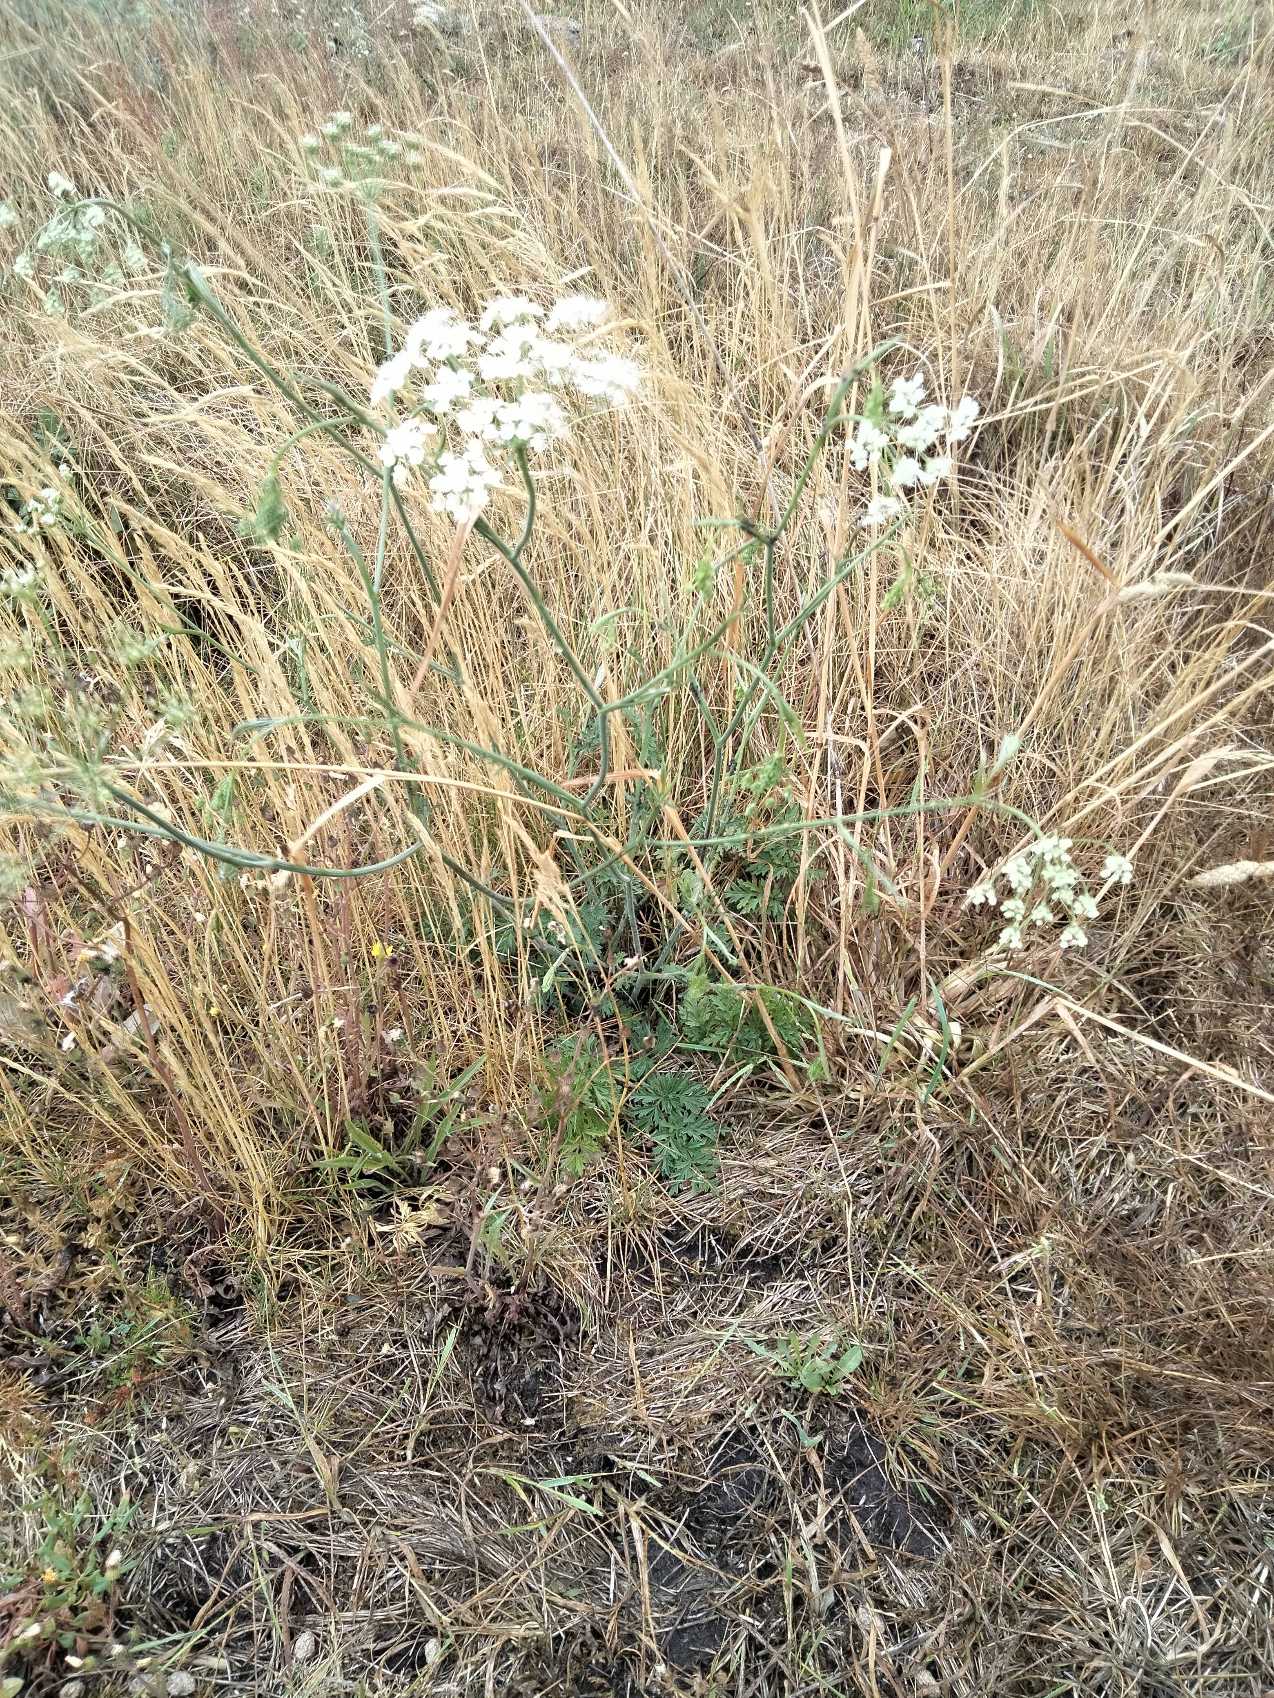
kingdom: Plantae
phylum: Tracheophyta
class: Magnoliopsida
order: Apiales
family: Apiaceae
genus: Pimpinella
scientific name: Pimpinella saxifraga
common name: Almindelig pimpinelle
